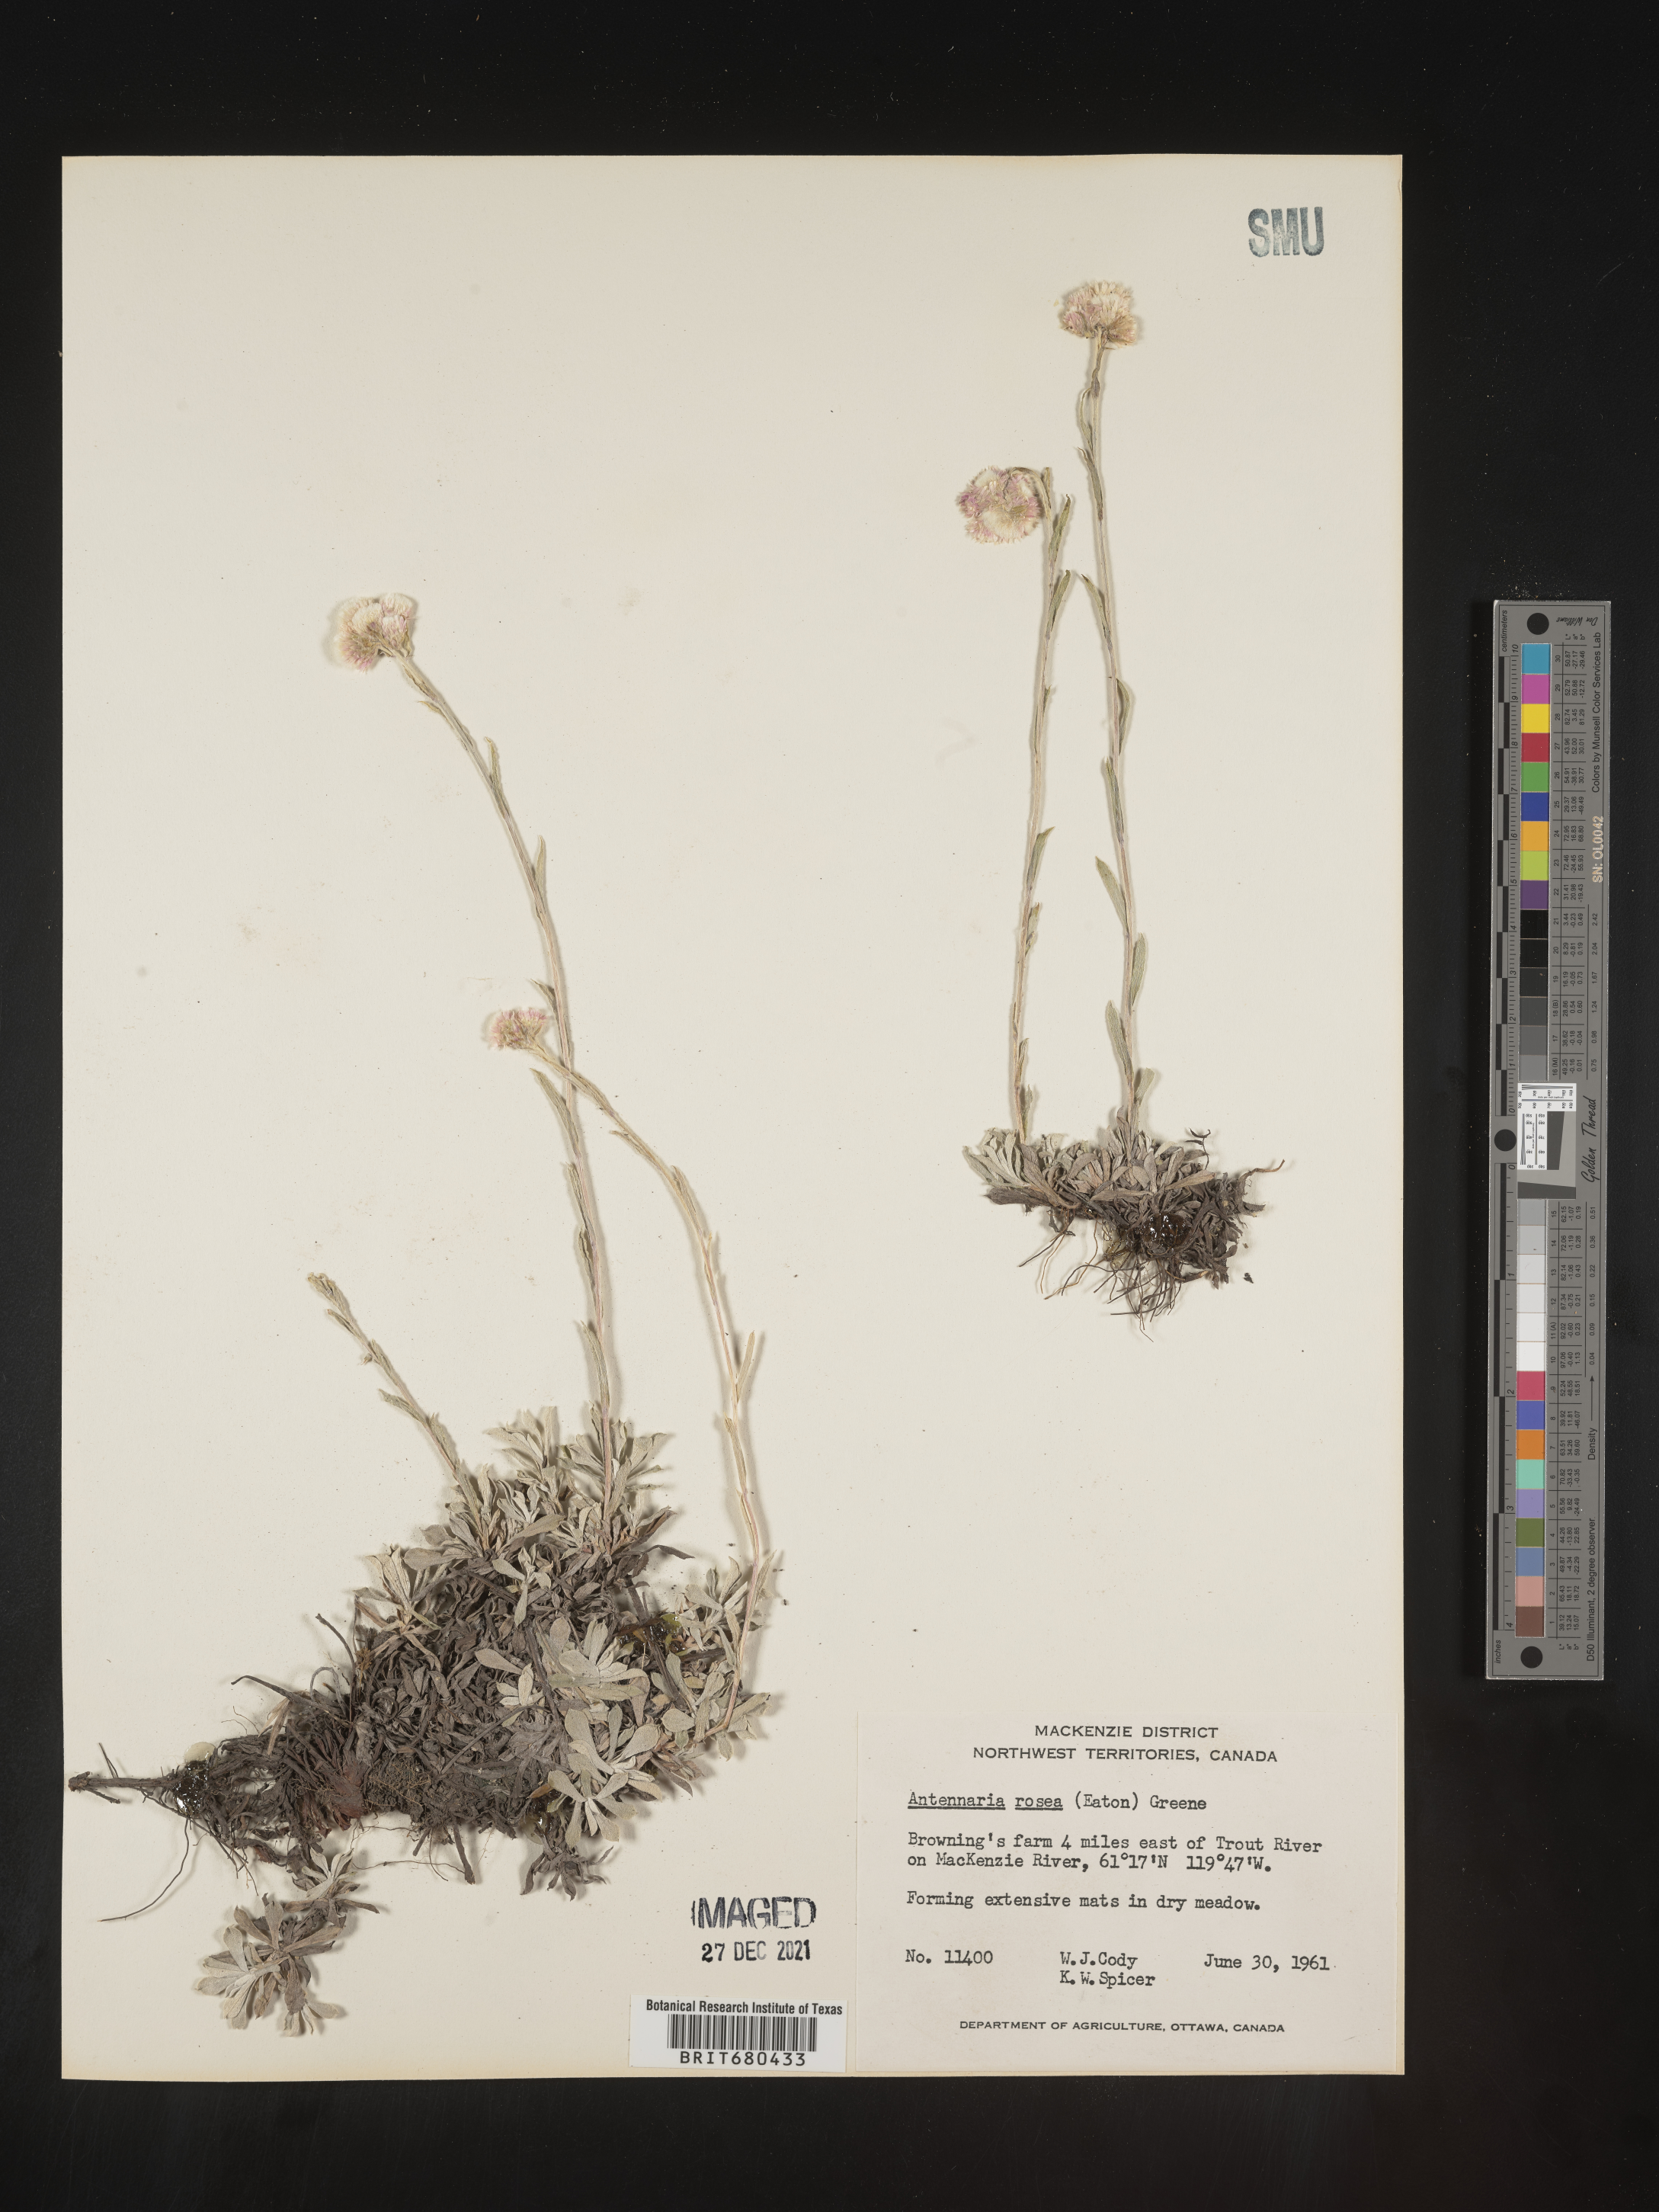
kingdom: Plantae
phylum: Tracheophyta
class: Magnoliopsida
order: Asterales
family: Asteraceae
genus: Antennaria
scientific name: Antennaria rosea
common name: Rosy pussytoes
